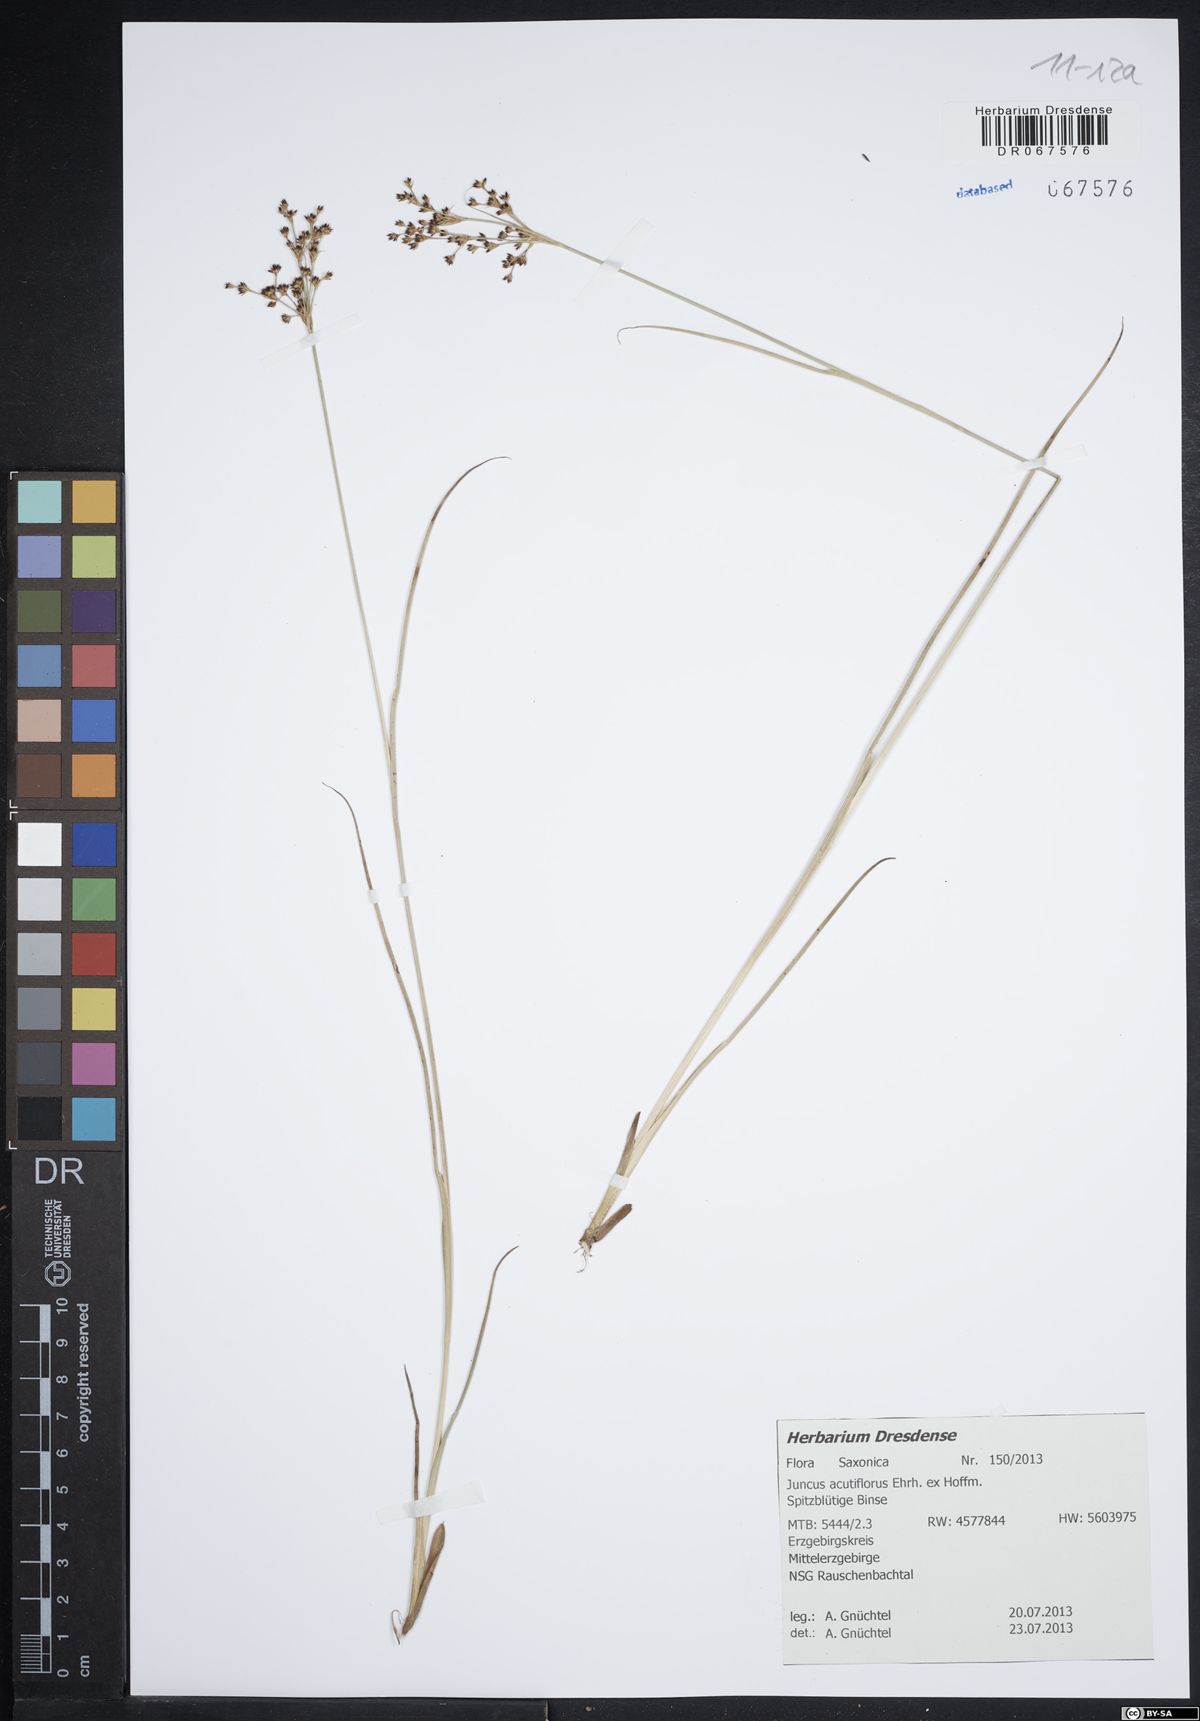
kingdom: Plantae
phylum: Tracheophyta
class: Liliopsida
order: Poales
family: Juncaceae
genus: Juncus
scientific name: Juncus acutiflorus
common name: Sharp-flowered rush
